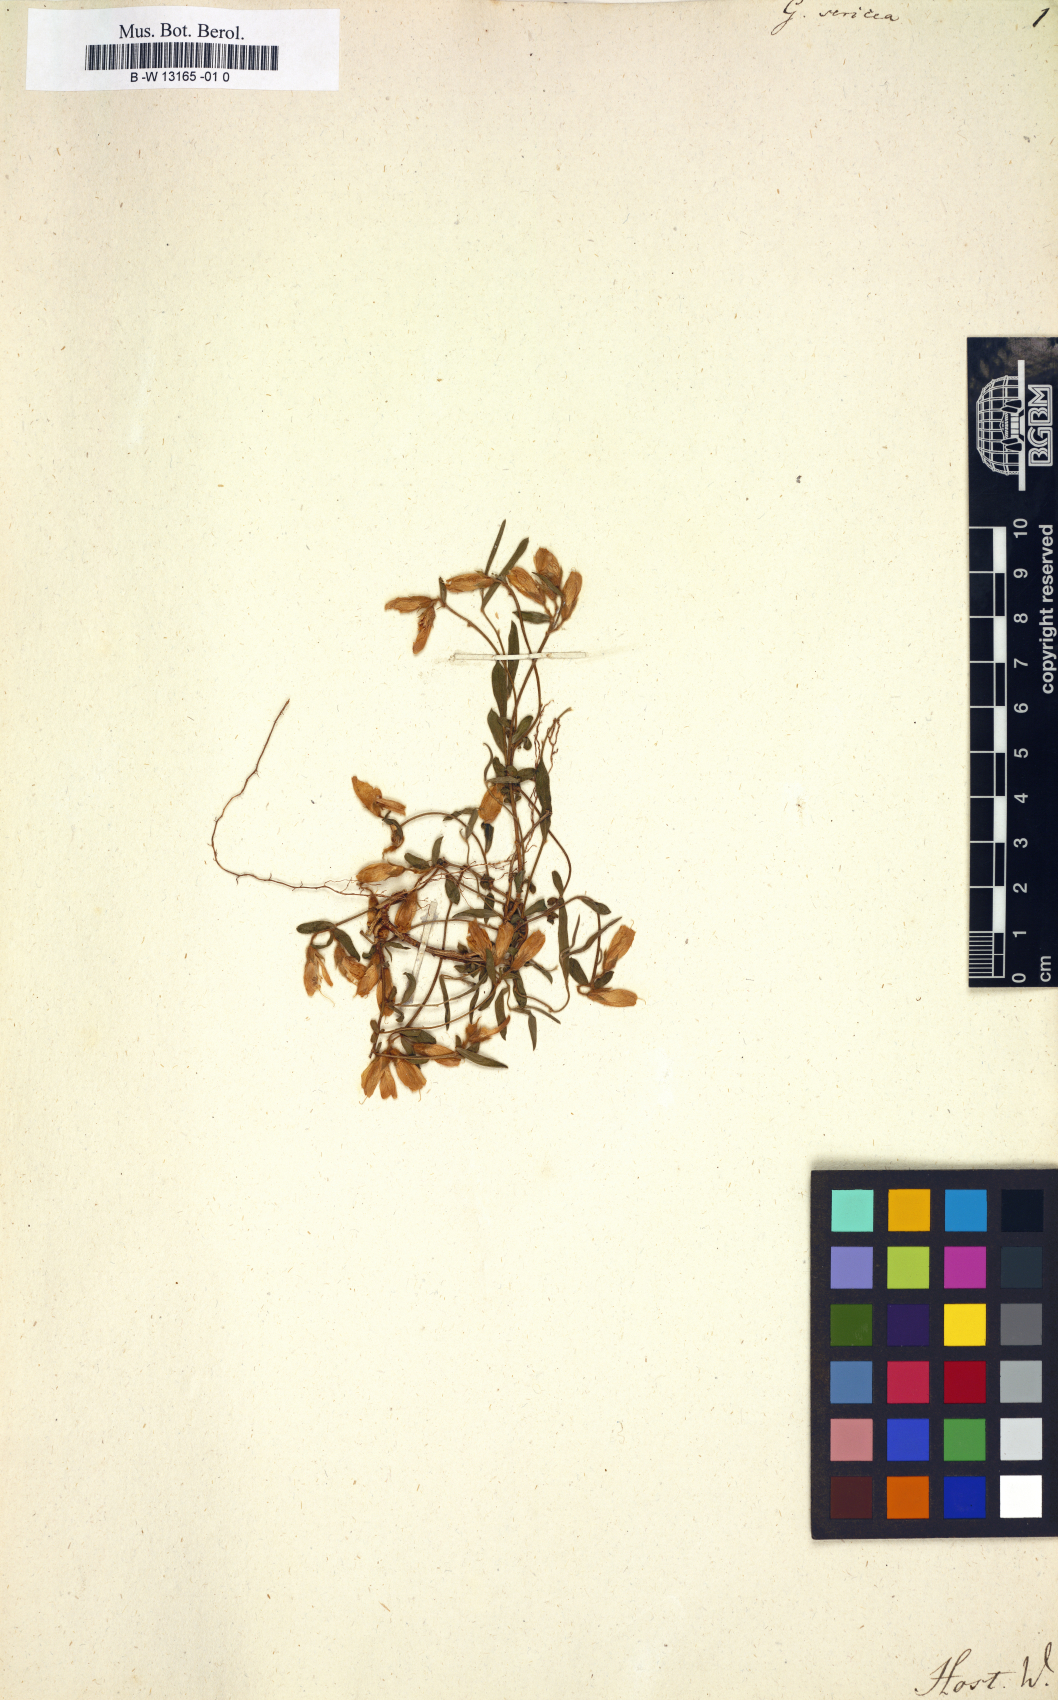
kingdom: Plantae
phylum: Tracheophyta
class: Magnoliopsida
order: Fabales
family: Fabaceae
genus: Genista
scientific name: Genista sericea
